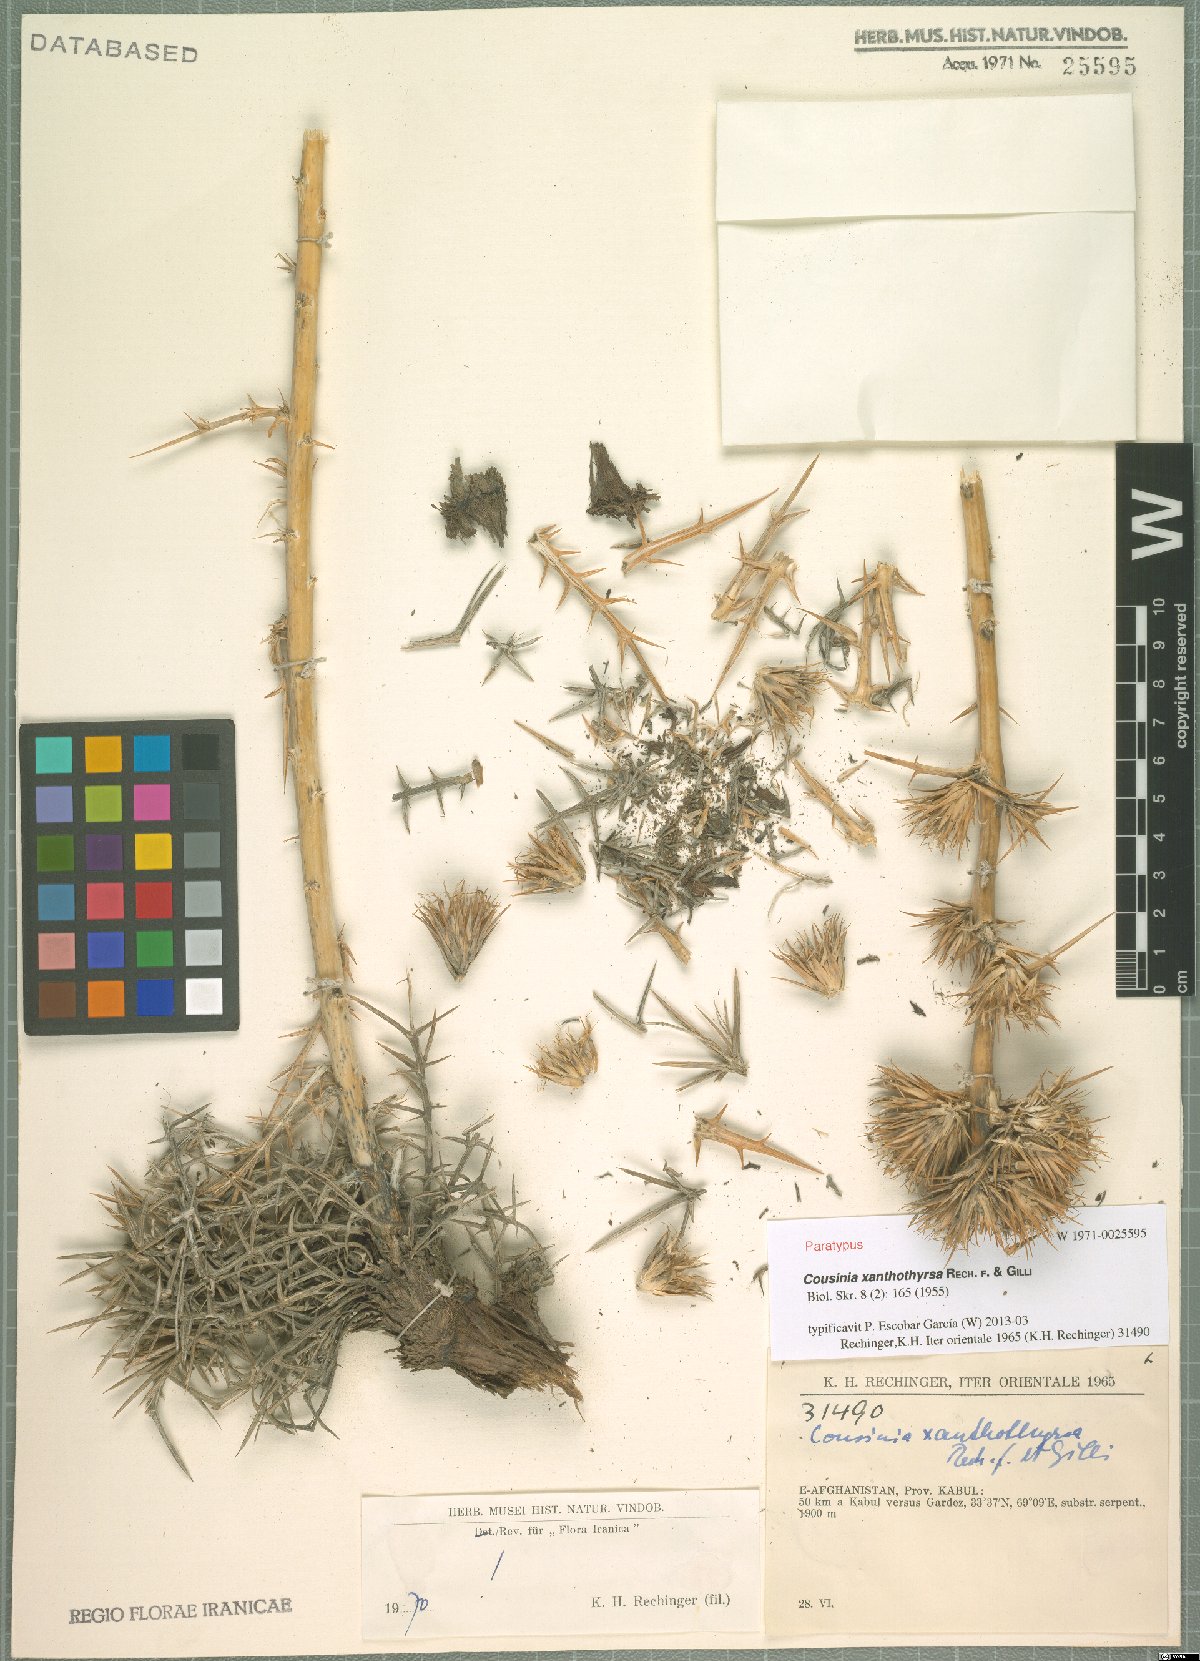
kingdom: Plantae
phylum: Tracheophyta
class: Magnoliopsida
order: Asterales
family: Asteraceae
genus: Cousinia
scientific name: Cousinia xanthothyrsa
